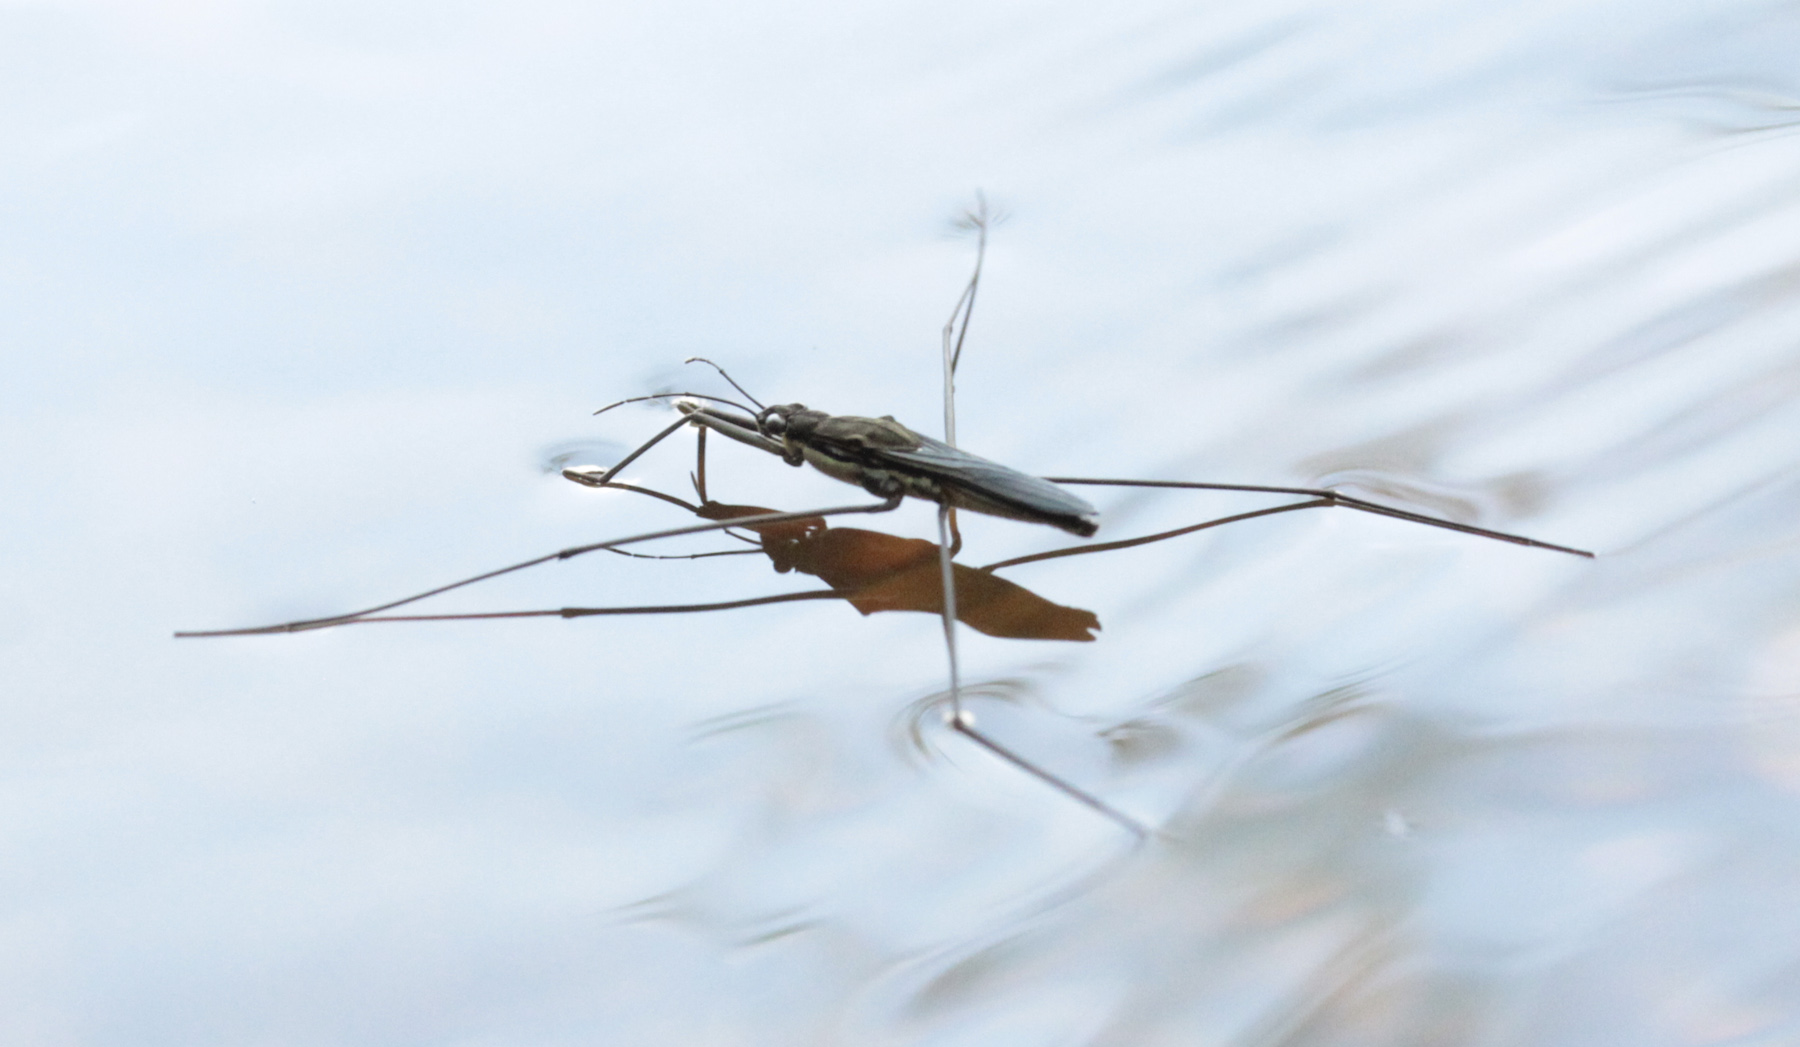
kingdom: Animalia
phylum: Arthropoda
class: Insecta
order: Hemiptera
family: Gerridae
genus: Aquarius
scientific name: Aquarius paludum
